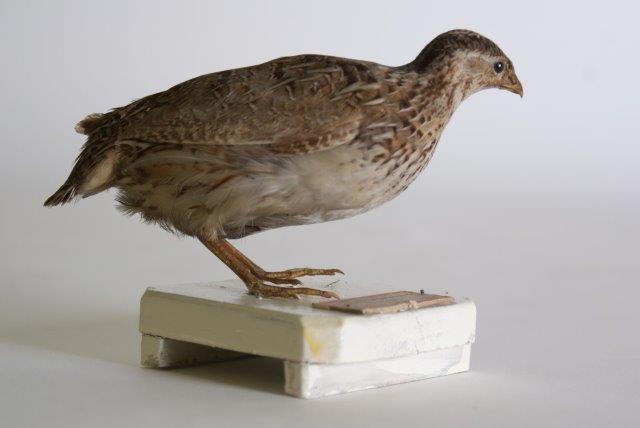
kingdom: Animalia
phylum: Chordata
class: Aves
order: Galliformes
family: Phasianidae
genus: Coturnix
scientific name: Coturnix coturnix
